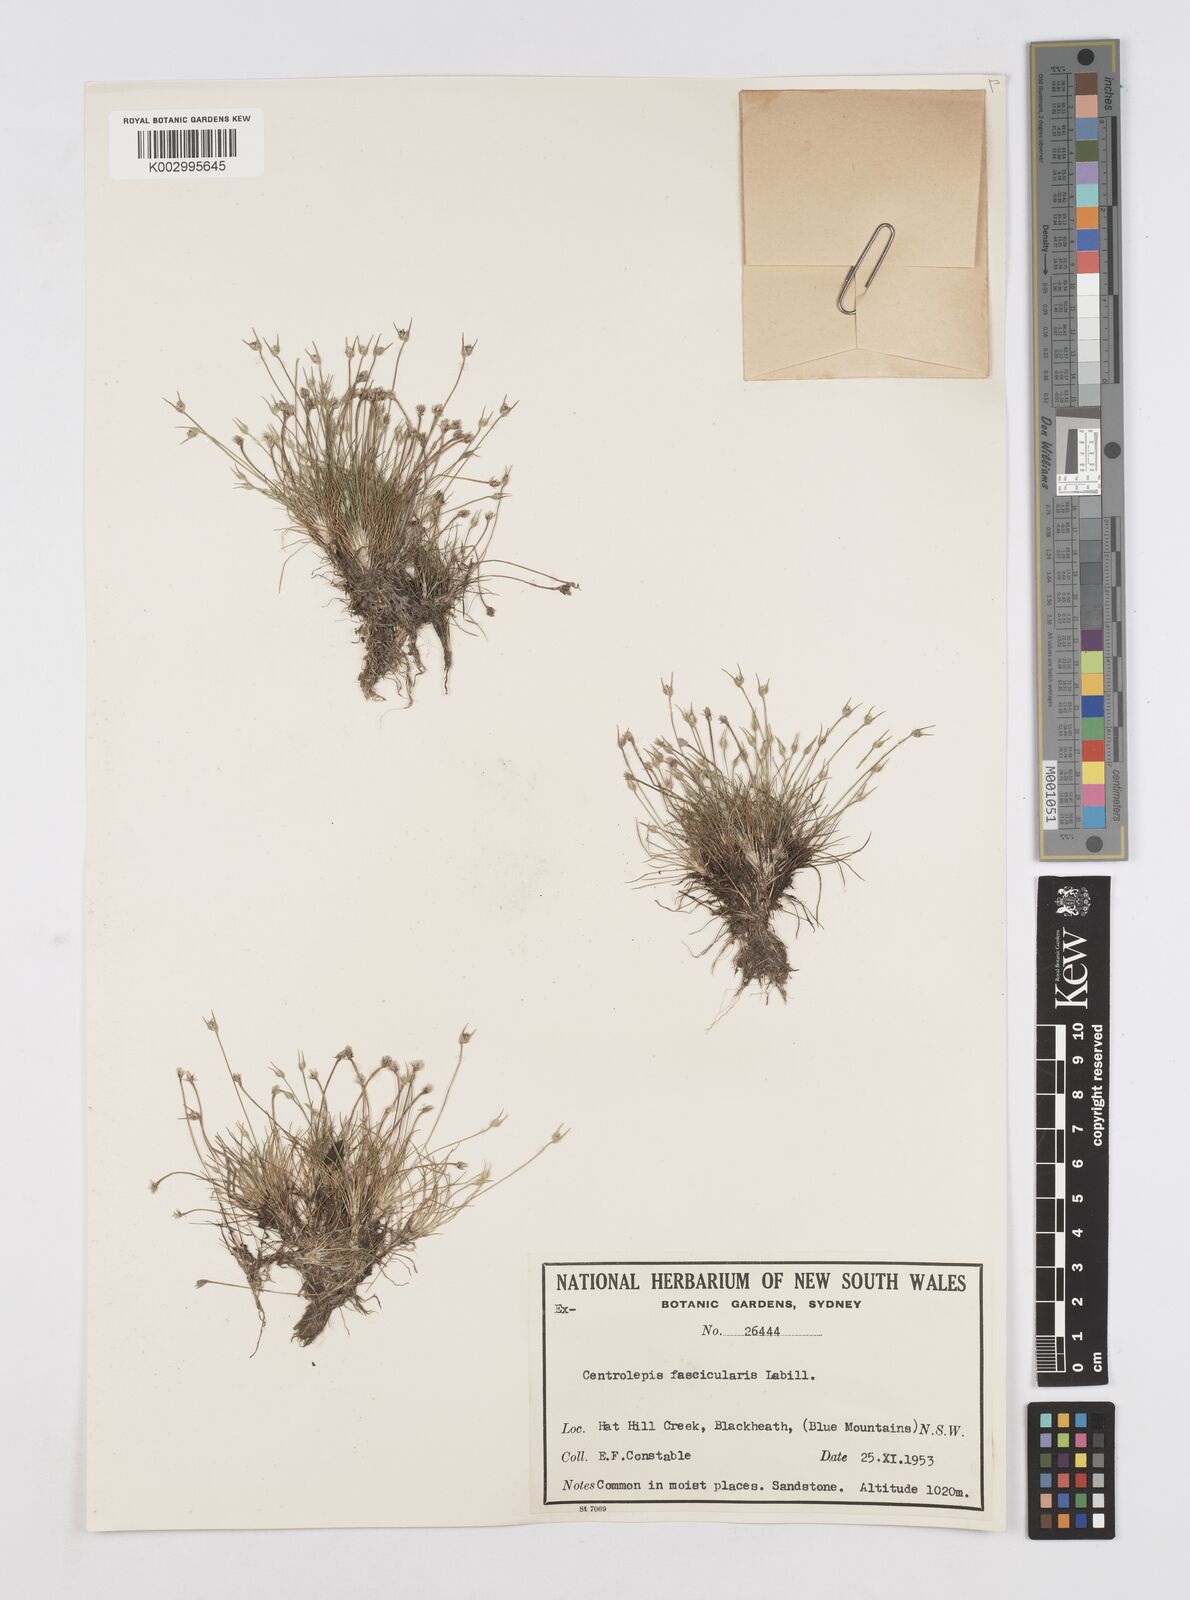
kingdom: Plantae
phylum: Tracheophyta
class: Liliopsida
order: Poales
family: Restionaceae
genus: Centrolepis
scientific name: Centrolepis fascicularis
